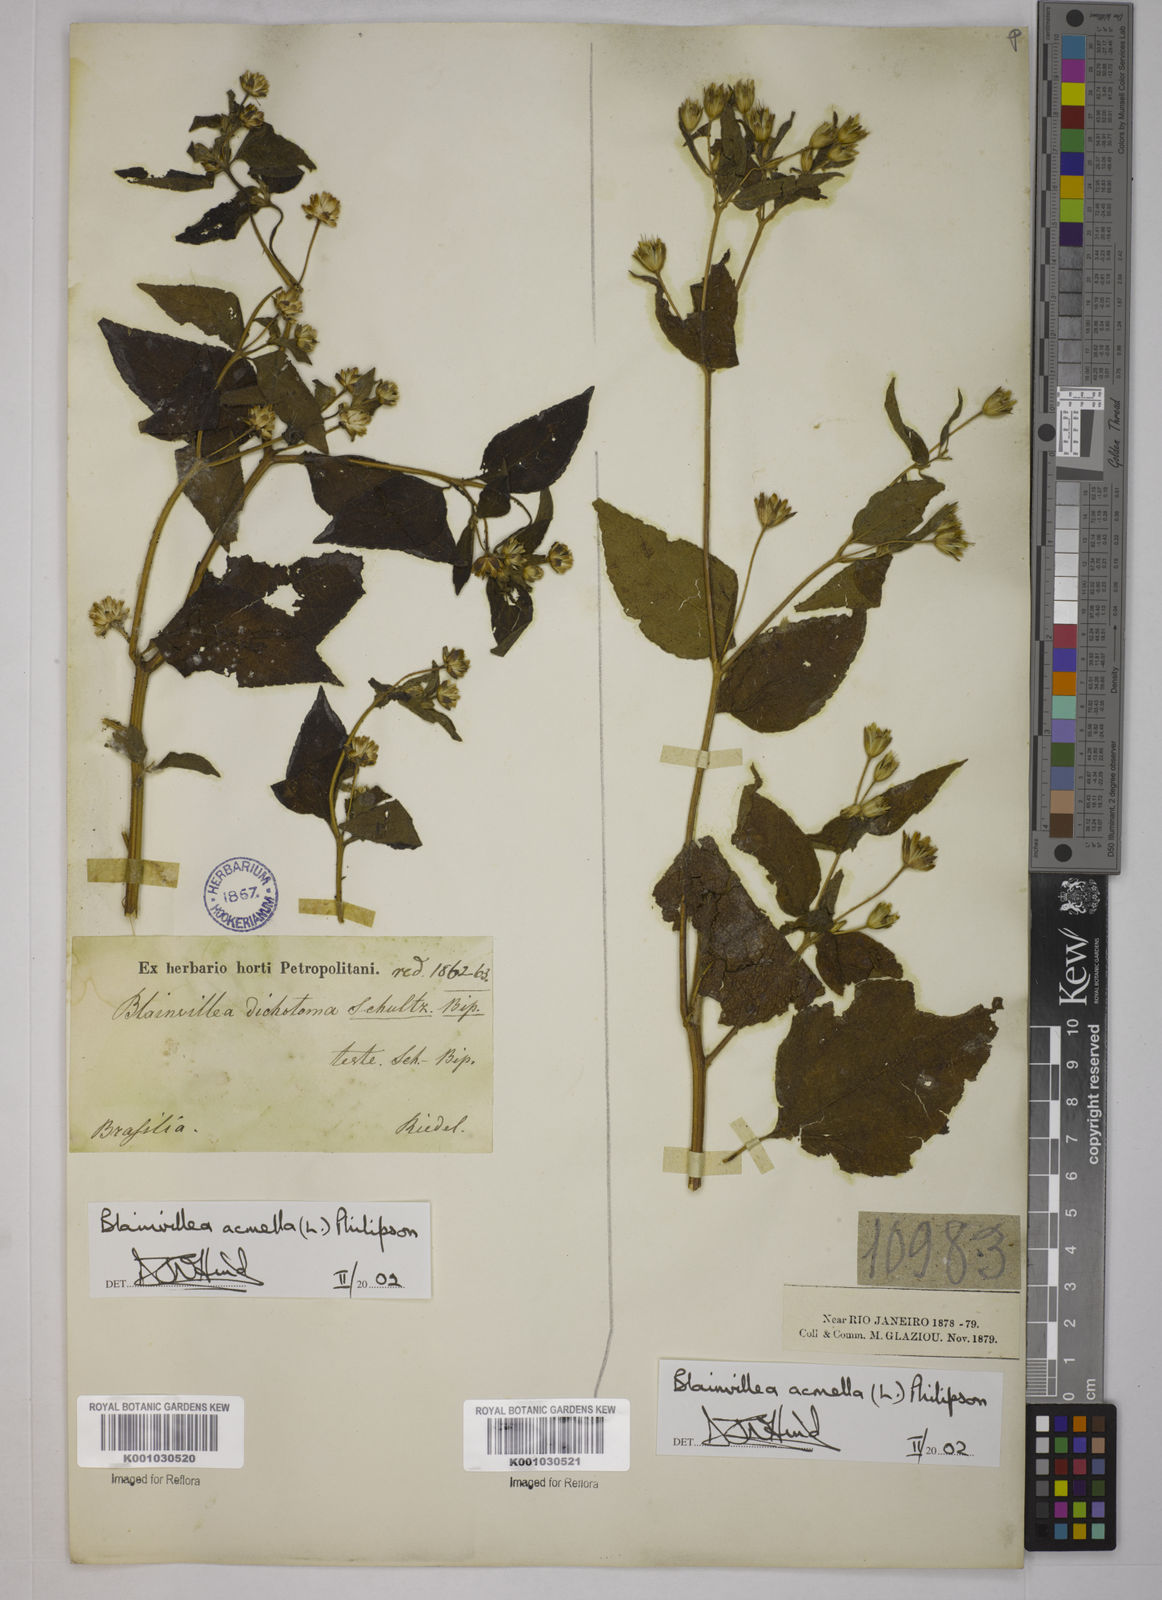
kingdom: Plantae
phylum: Tracheophyta
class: Magnoliopsida
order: Asterales
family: Asteraceae
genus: Blainvillea
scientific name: Blainvillea acmella
